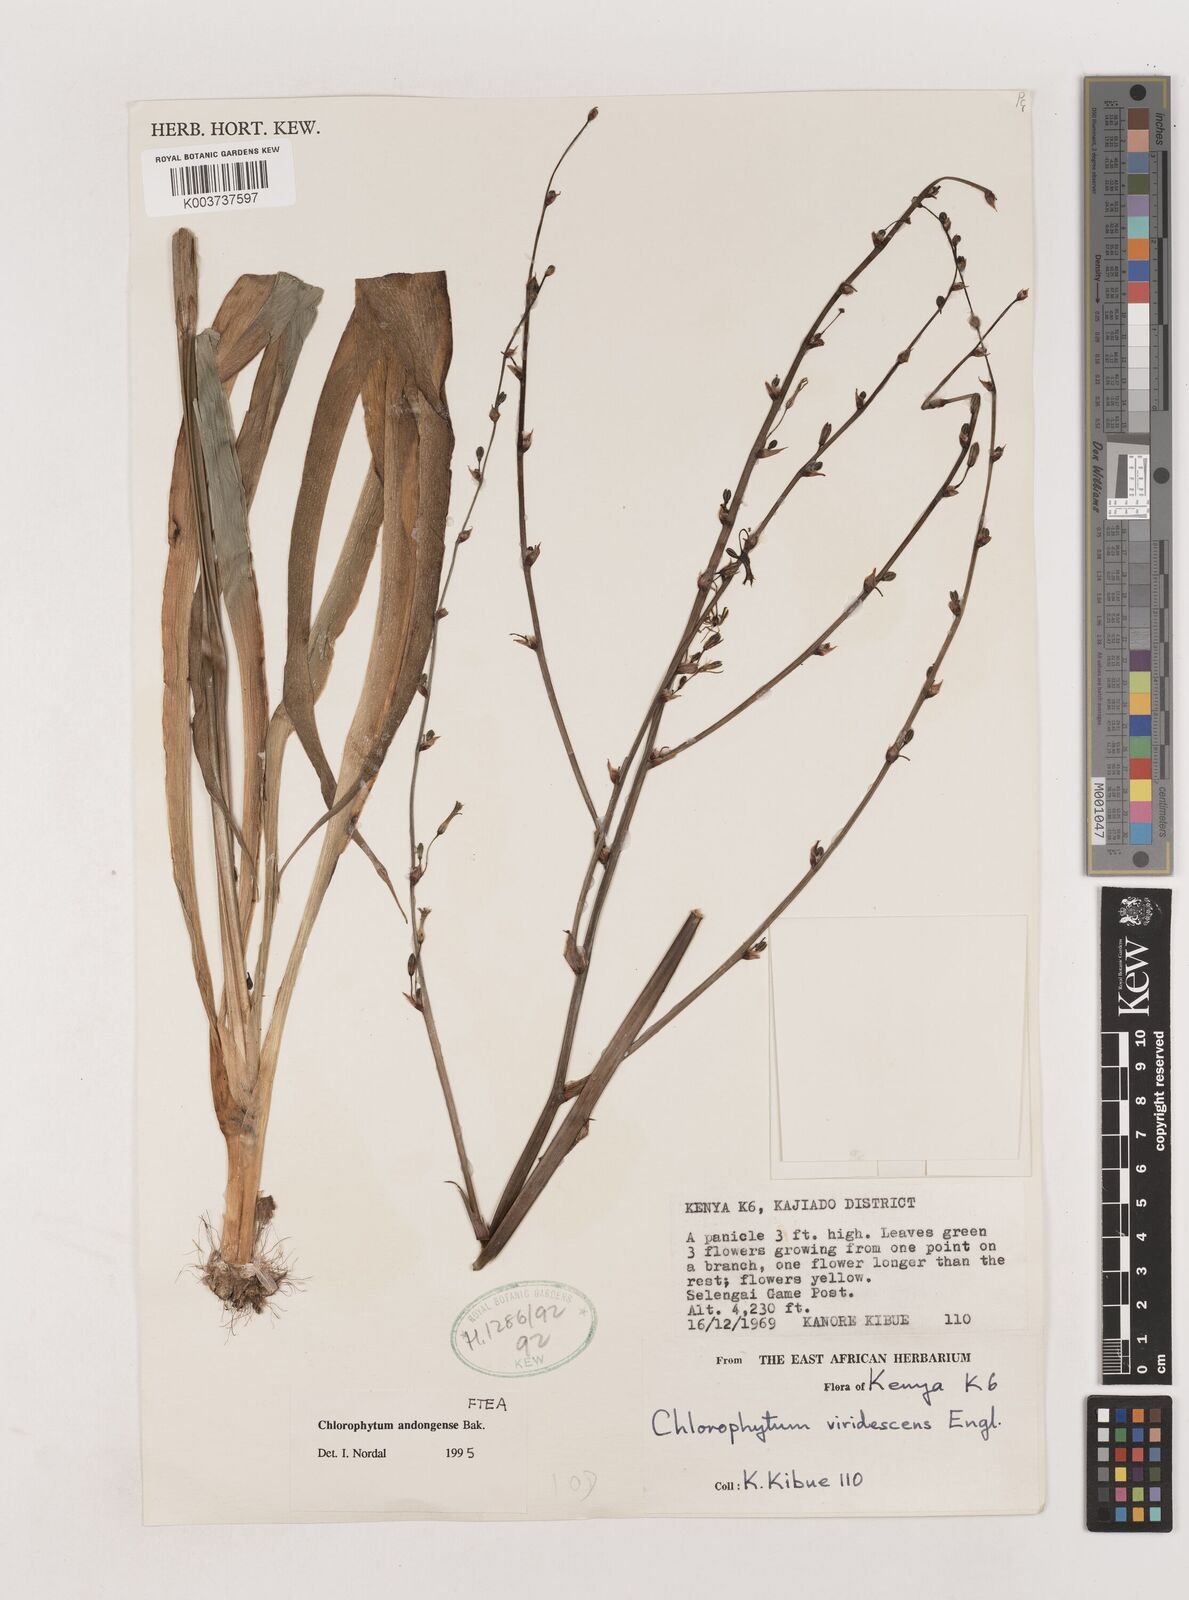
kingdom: Plantae
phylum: Tracheophyta
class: Liliopsida
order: Asparagales
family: Asparagaceae
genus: Chlorophytum
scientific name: Chlorophytum andongense
